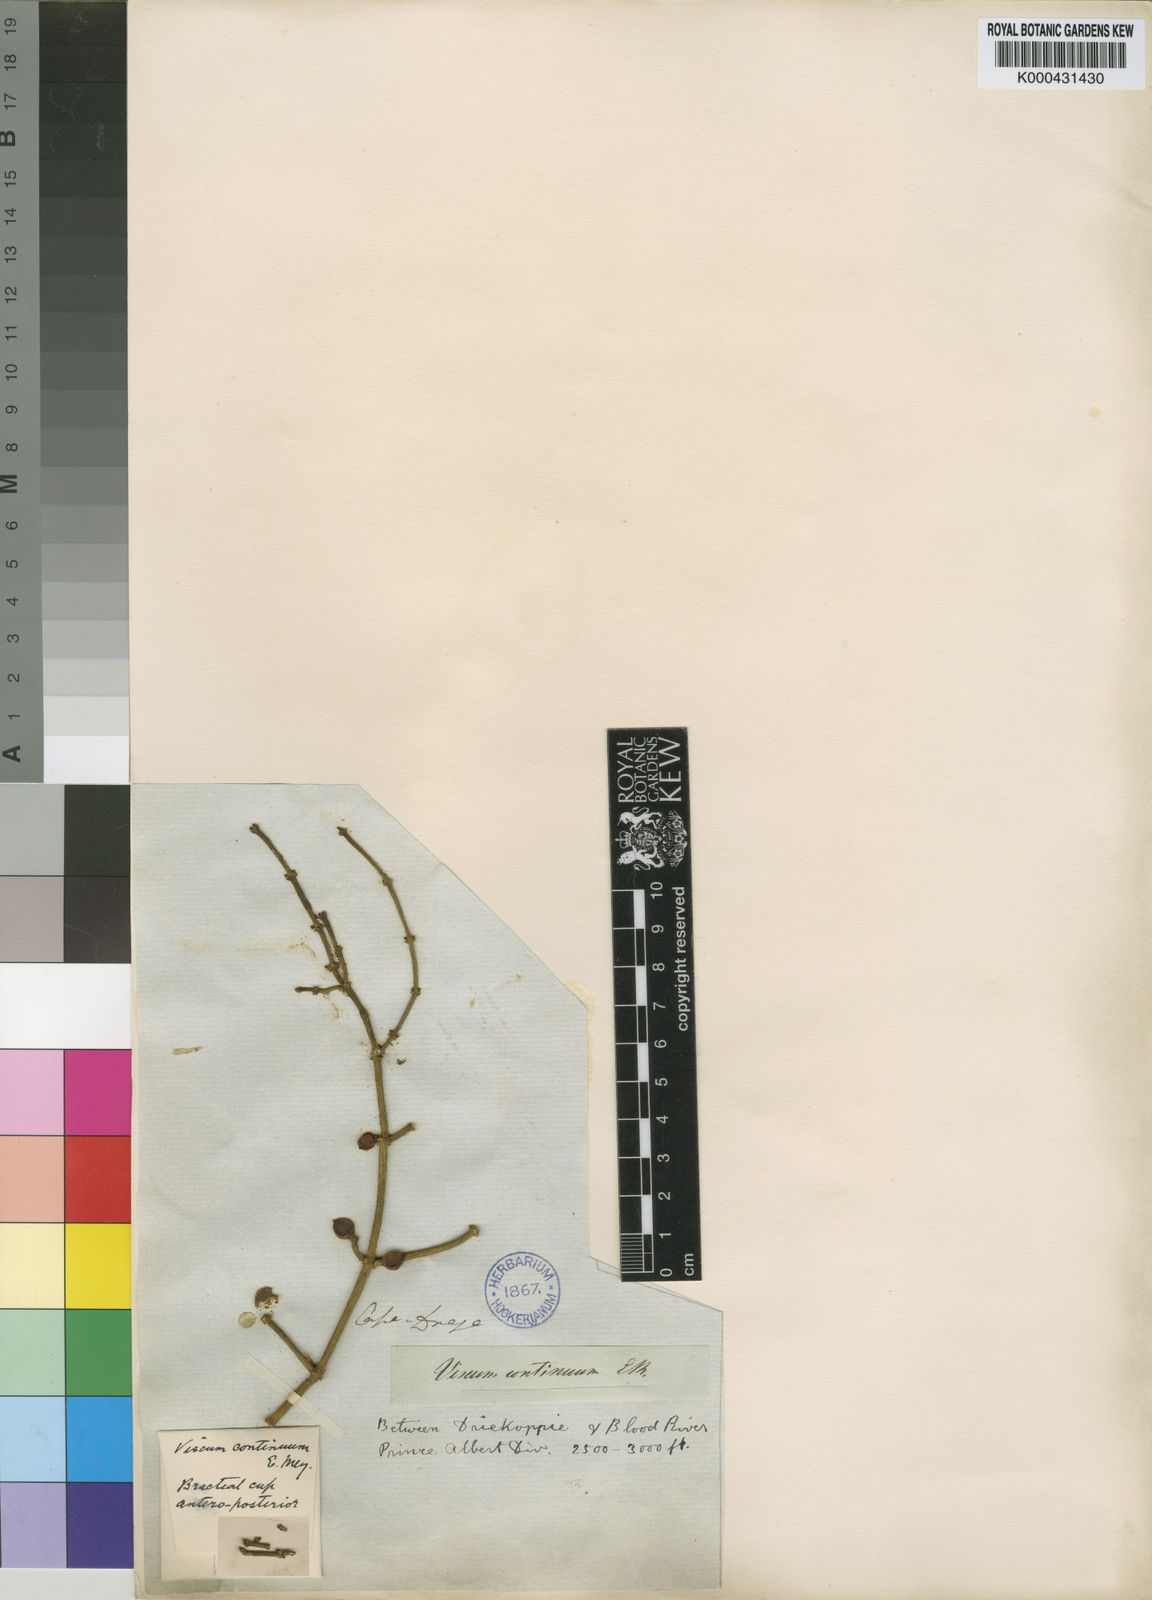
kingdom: Plantae
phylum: Tracheophyta
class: Magnoliopsida
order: Santalales
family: Viscaceae
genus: Viscum
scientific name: Viscum continuum
